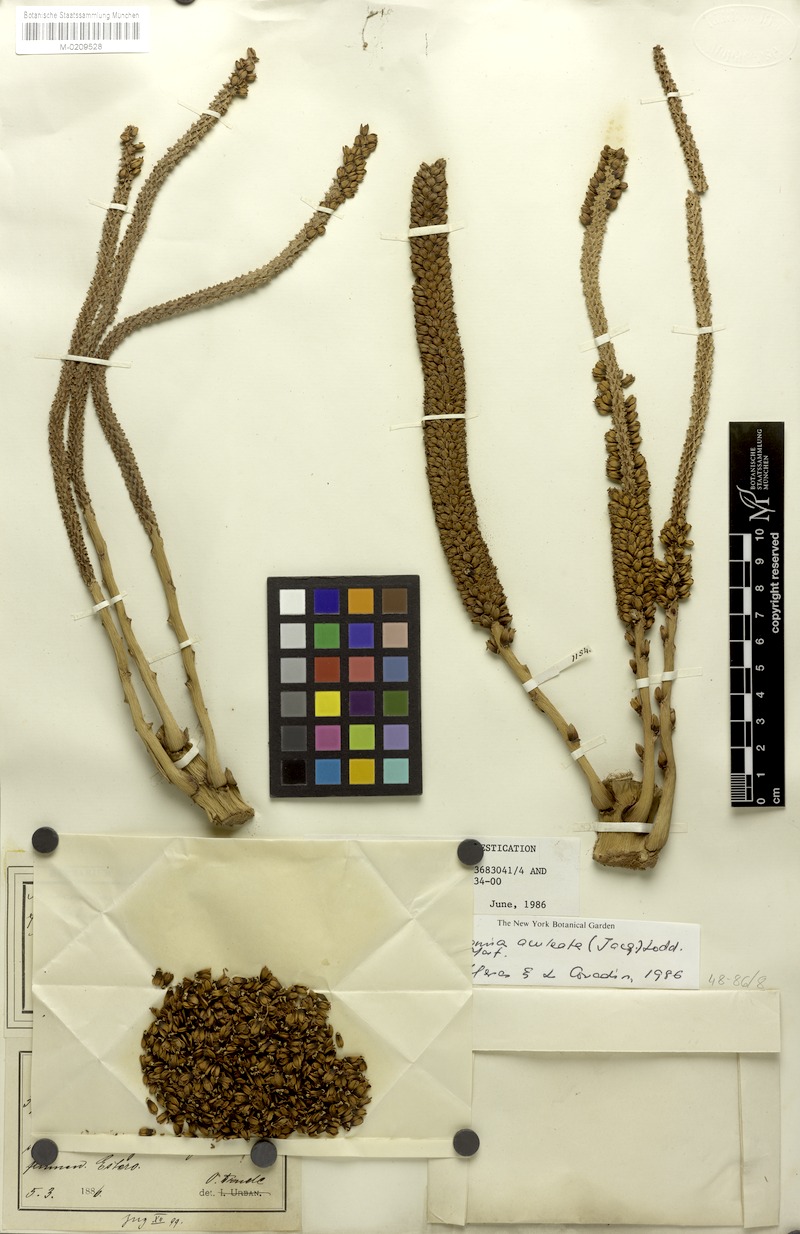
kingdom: Plantae
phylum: Tracheophyta
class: Liliopsida
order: Arecales
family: Arecaceae
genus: Acrocomia
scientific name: Acrocomia aculeata
